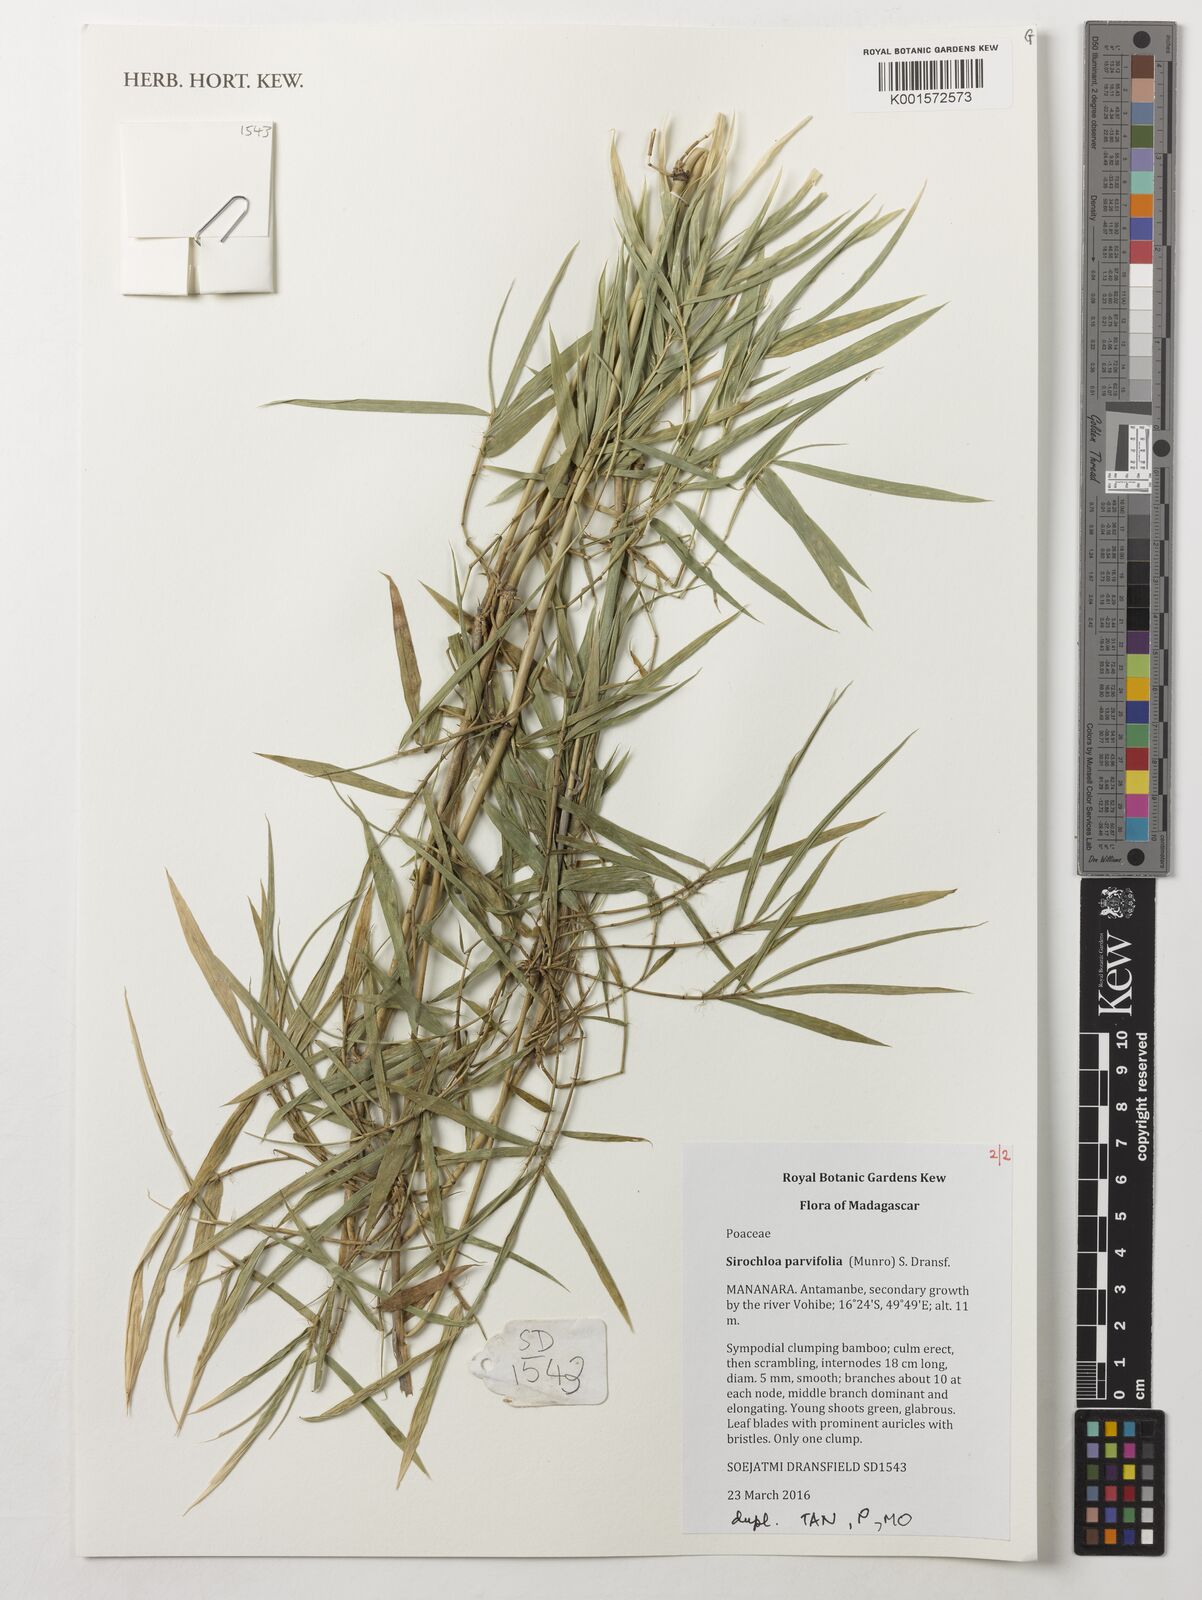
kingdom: Plantae
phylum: Tracheophyta
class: Liliopsida
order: Poales
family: Poaceae
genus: Sirochloa
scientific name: Sirochloa parvifolia
